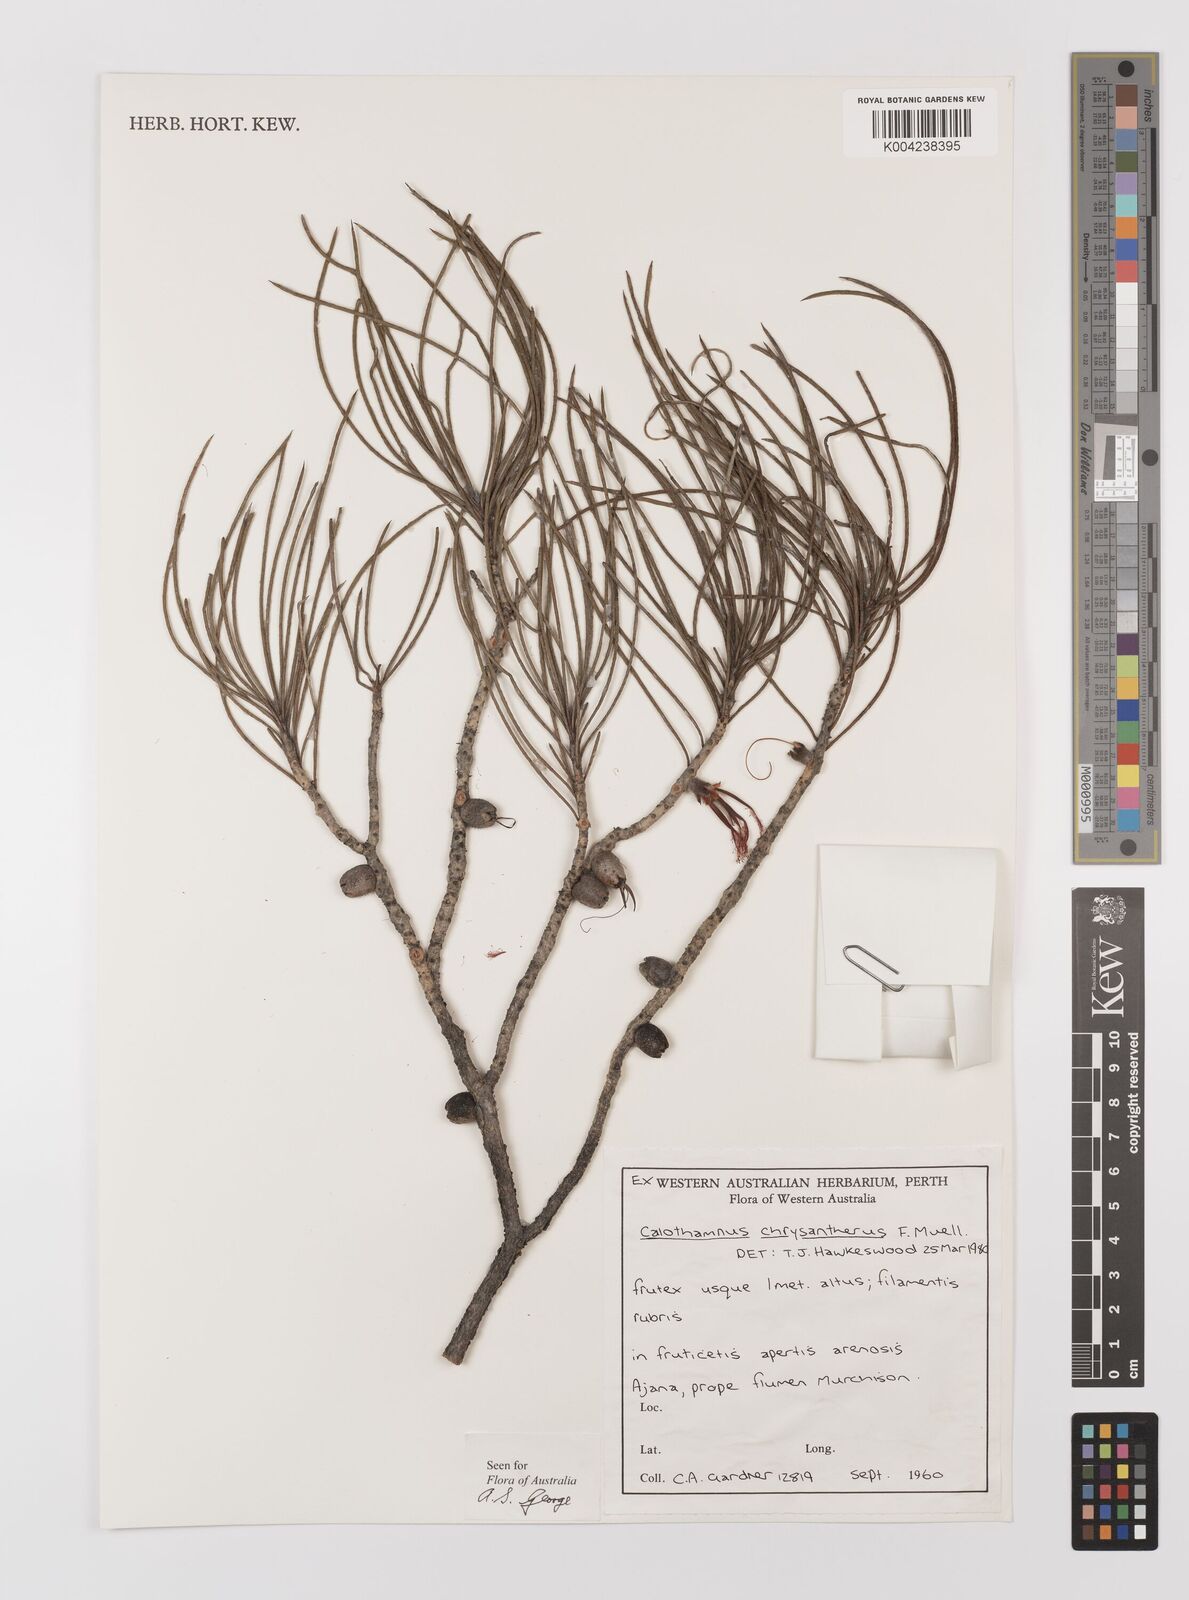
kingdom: Plantae
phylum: Tracheophyta
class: Magnoliopsida
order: Myrtales
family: Myrtaceae
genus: Melaleuca
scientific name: Melaleuca chrysantherea
